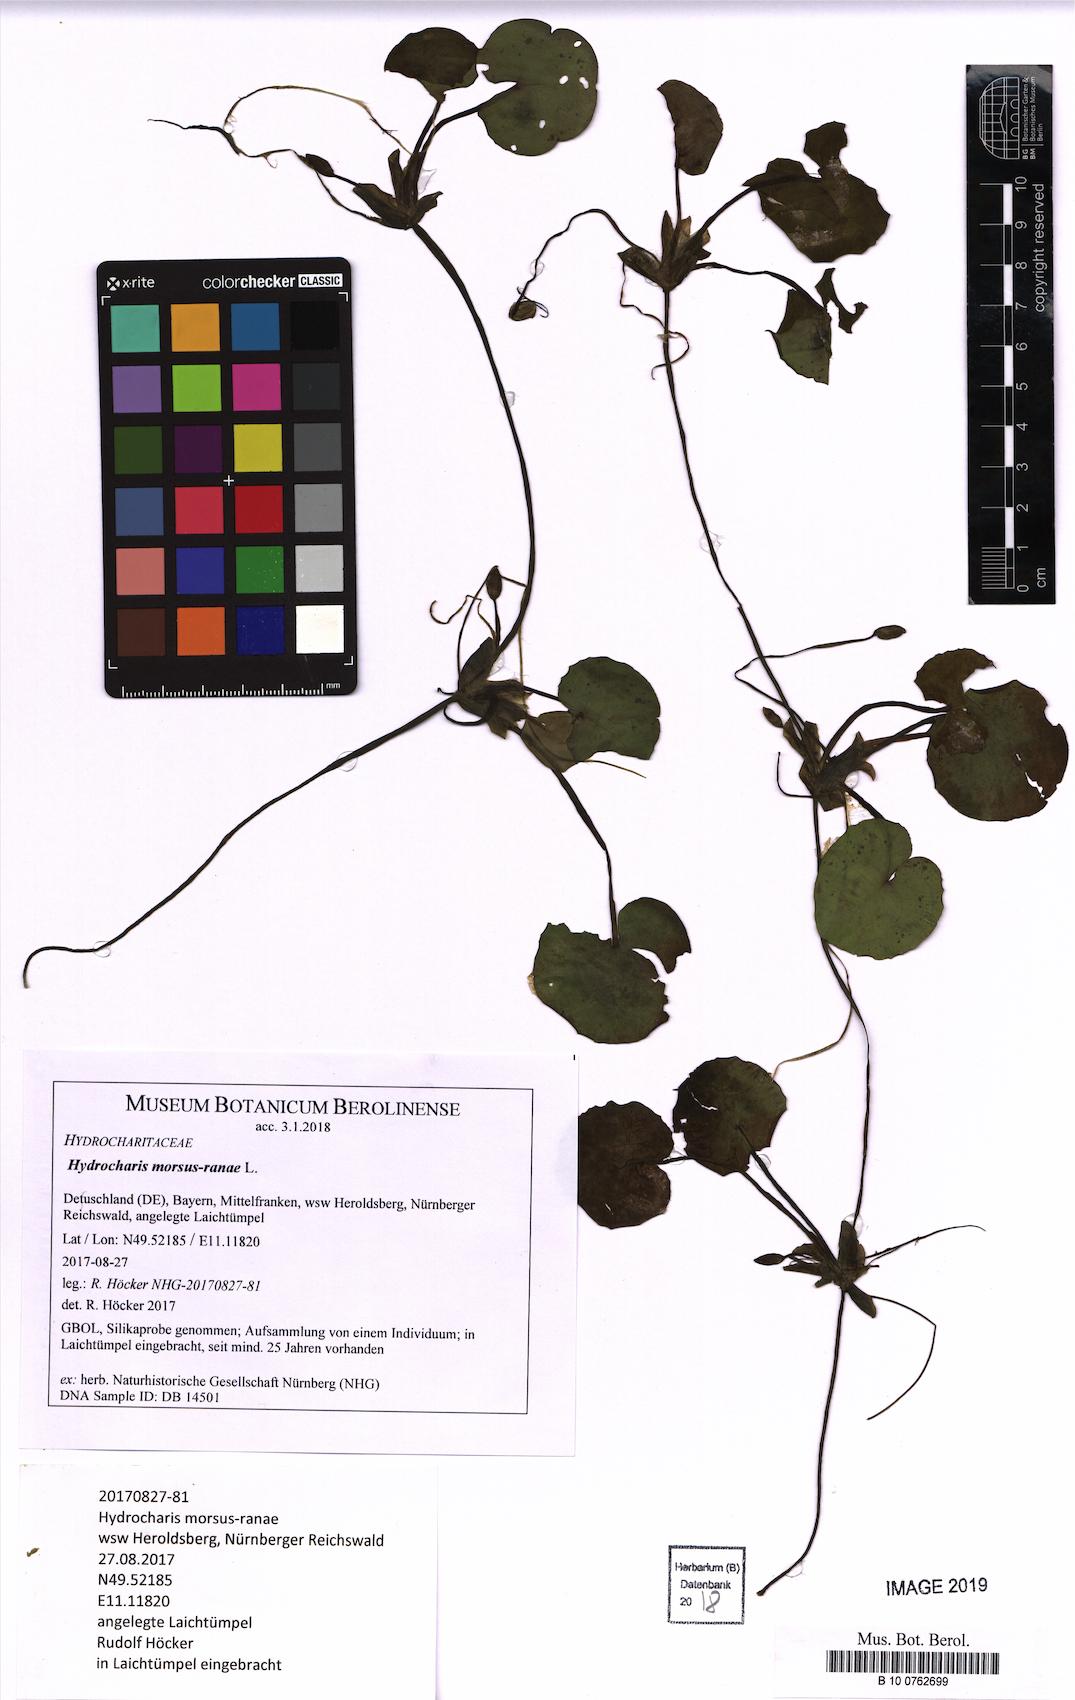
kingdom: Plantae
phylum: Tracheophyta
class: Liliopsida
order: Alismatales
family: Hydrocharitaceae
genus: Hydrocharis
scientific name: Hydrocharis morsus-ranae
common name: Frogbit
